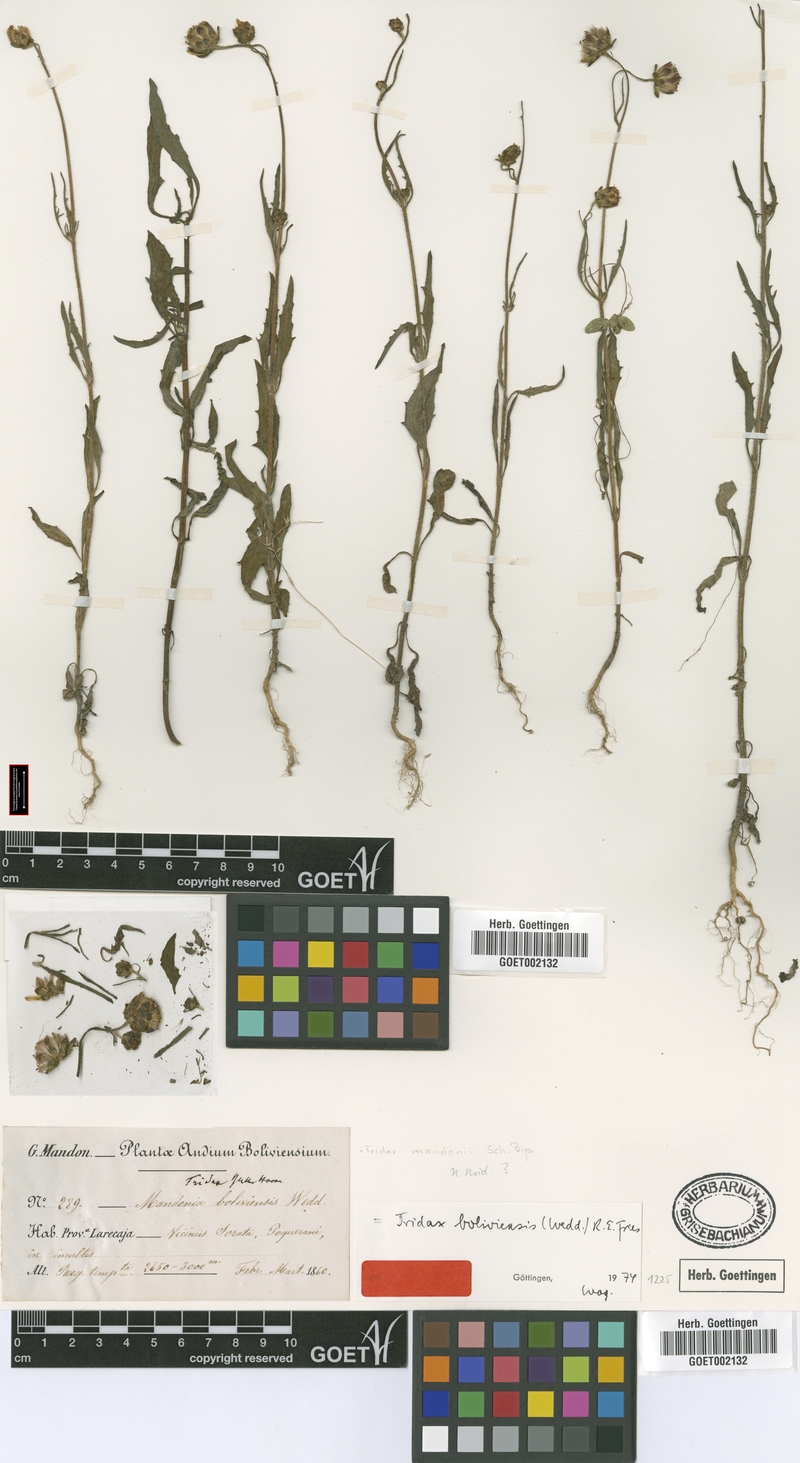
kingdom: Plantae
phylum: Tracheophyta
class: Magnoliopsida
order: Asterales
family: Asteraceae
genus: Tridax
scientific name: Tridax boliviensis
